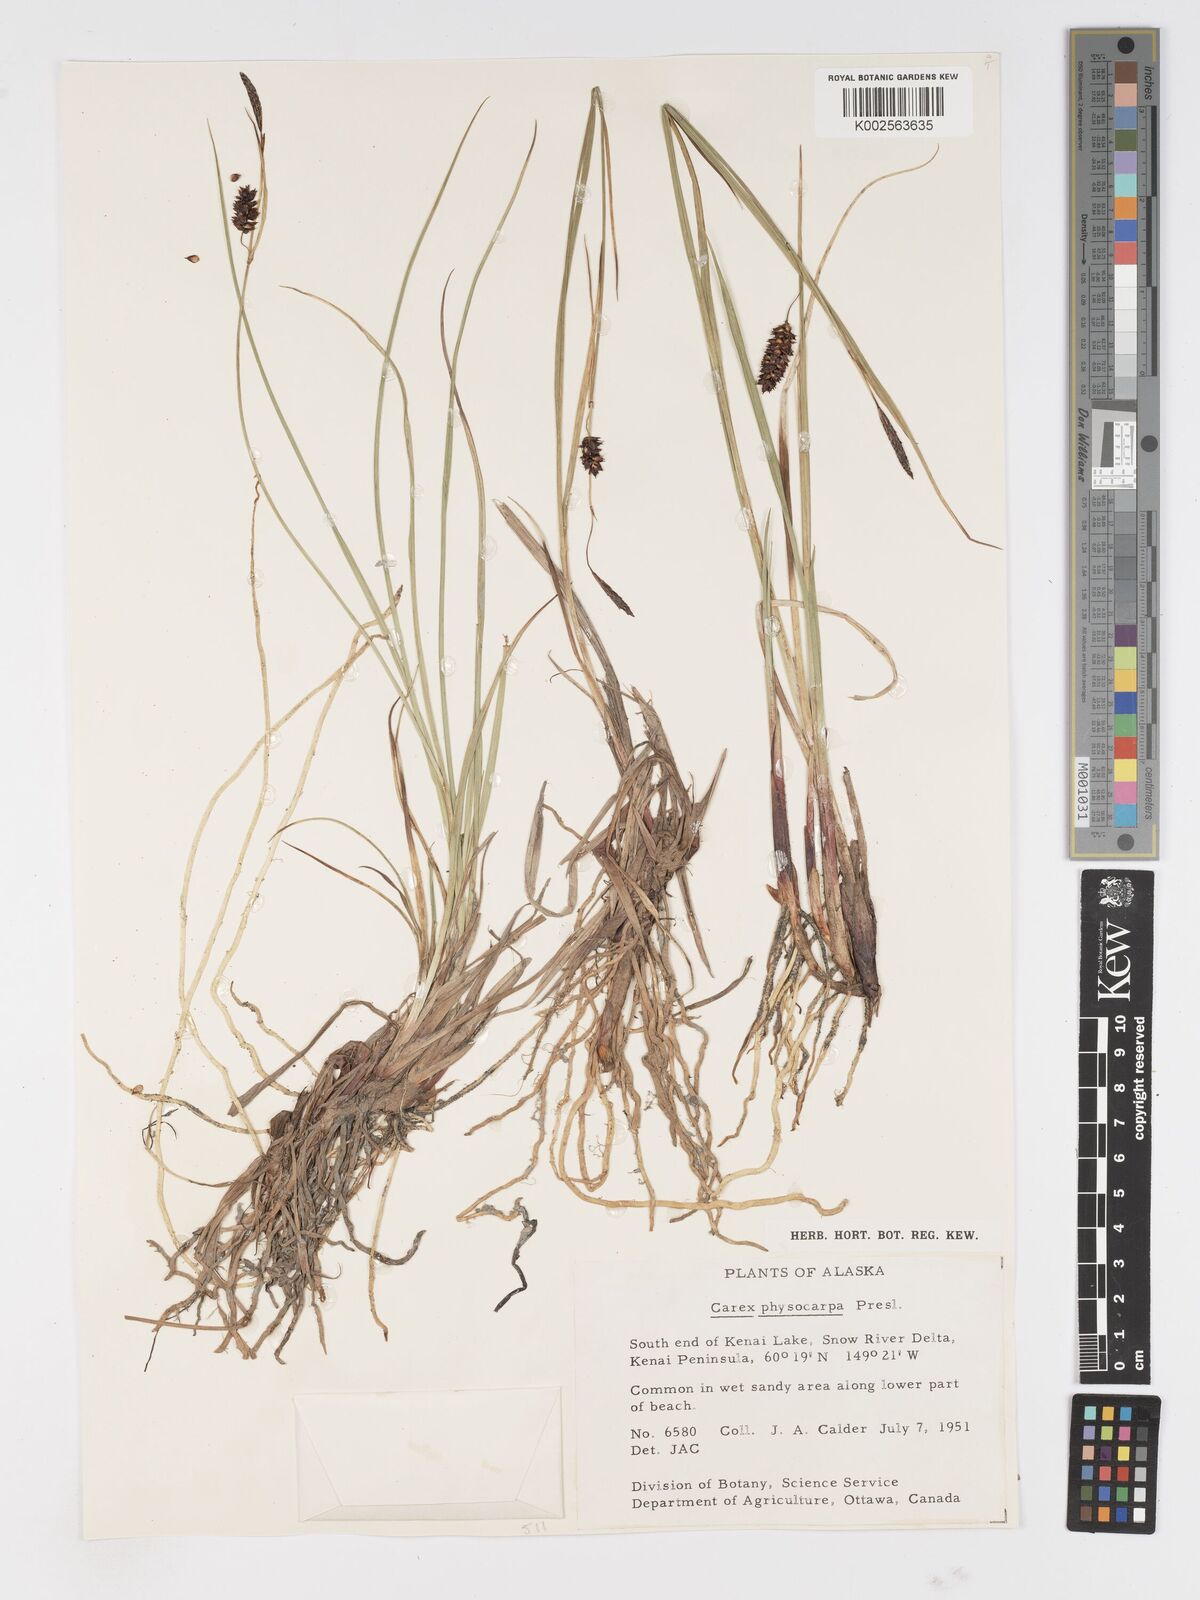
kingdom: Plantae
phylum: Tracheophyta
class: Liliopsida
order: Poales
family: Cyperaceae
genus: Carex
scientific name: Carex saxatilis
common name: Russet sedge
